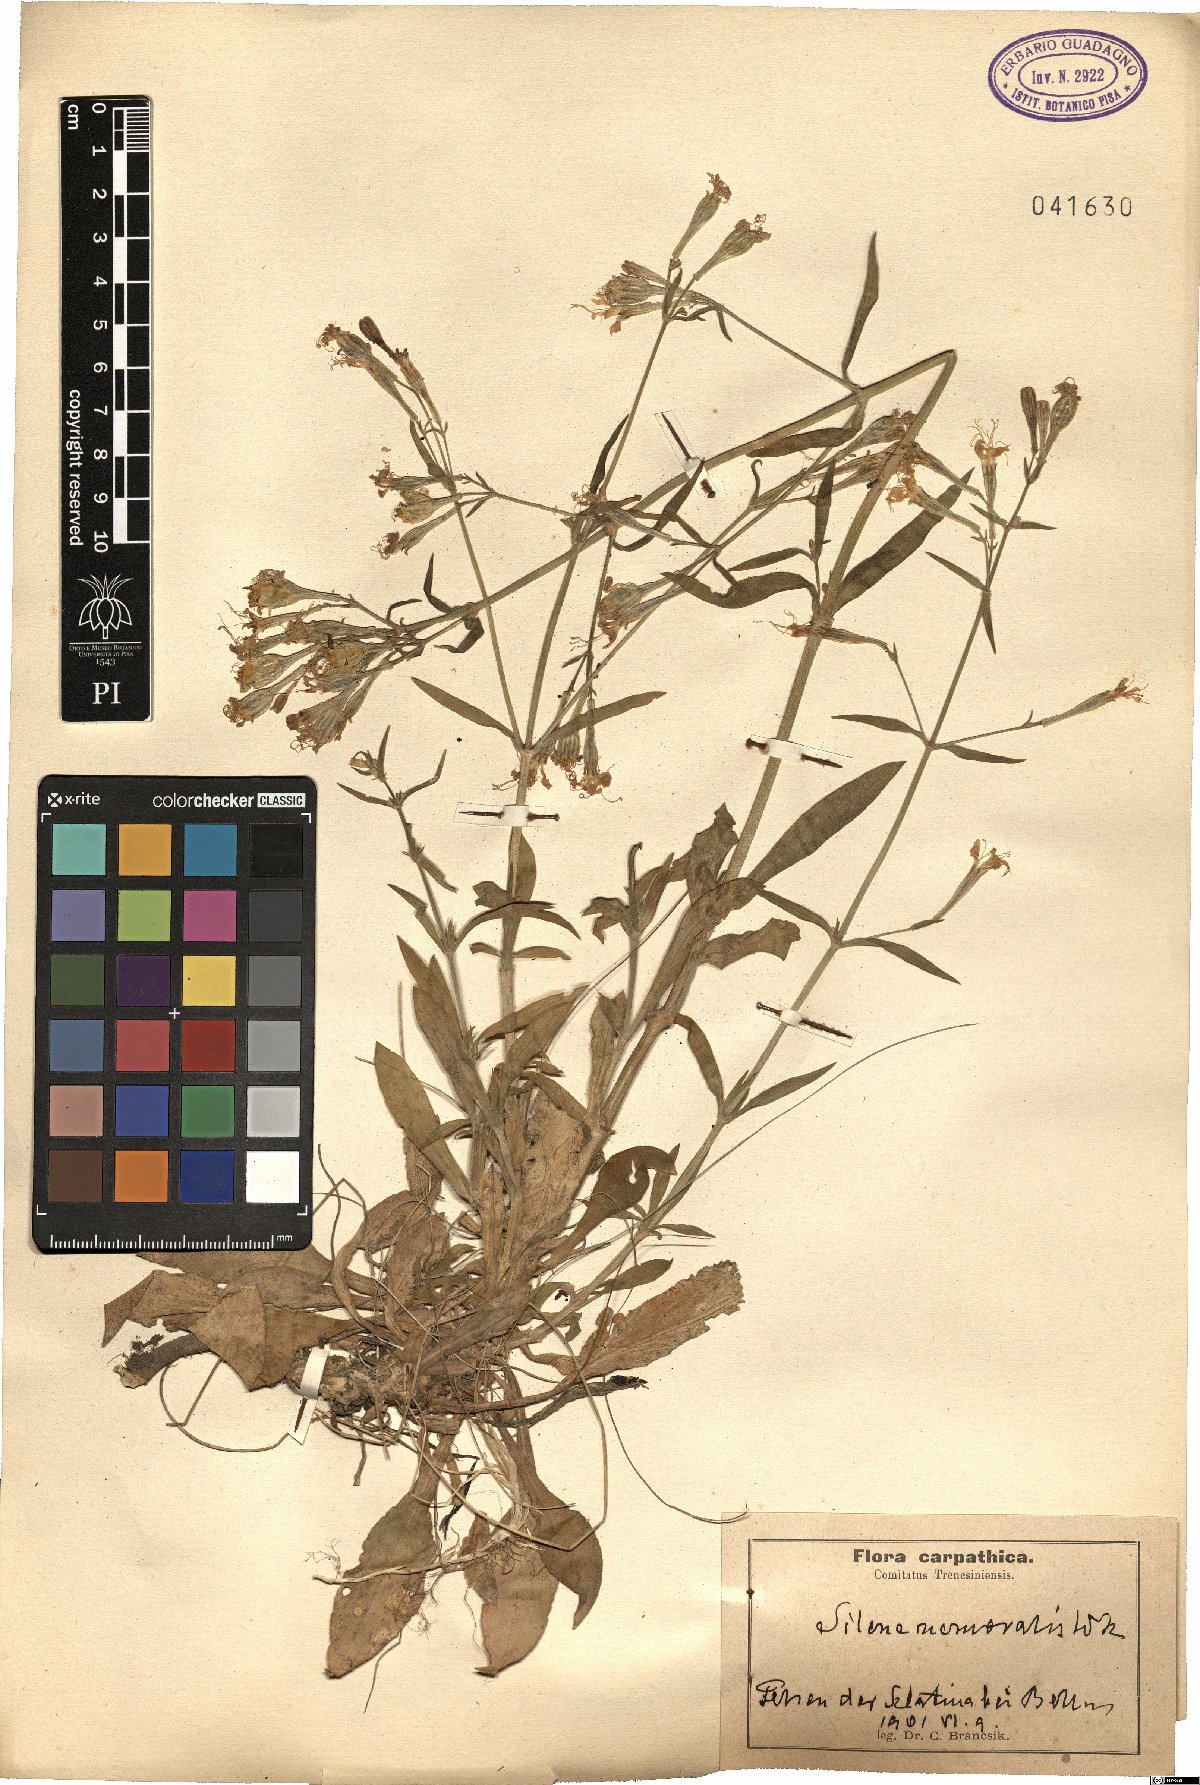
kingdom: Plantae
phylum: Tracheophyta
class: Magnoliopsida
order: Caryophyllales
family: Caryophyllaceae
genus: Silene
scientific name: Silene nemoralis
